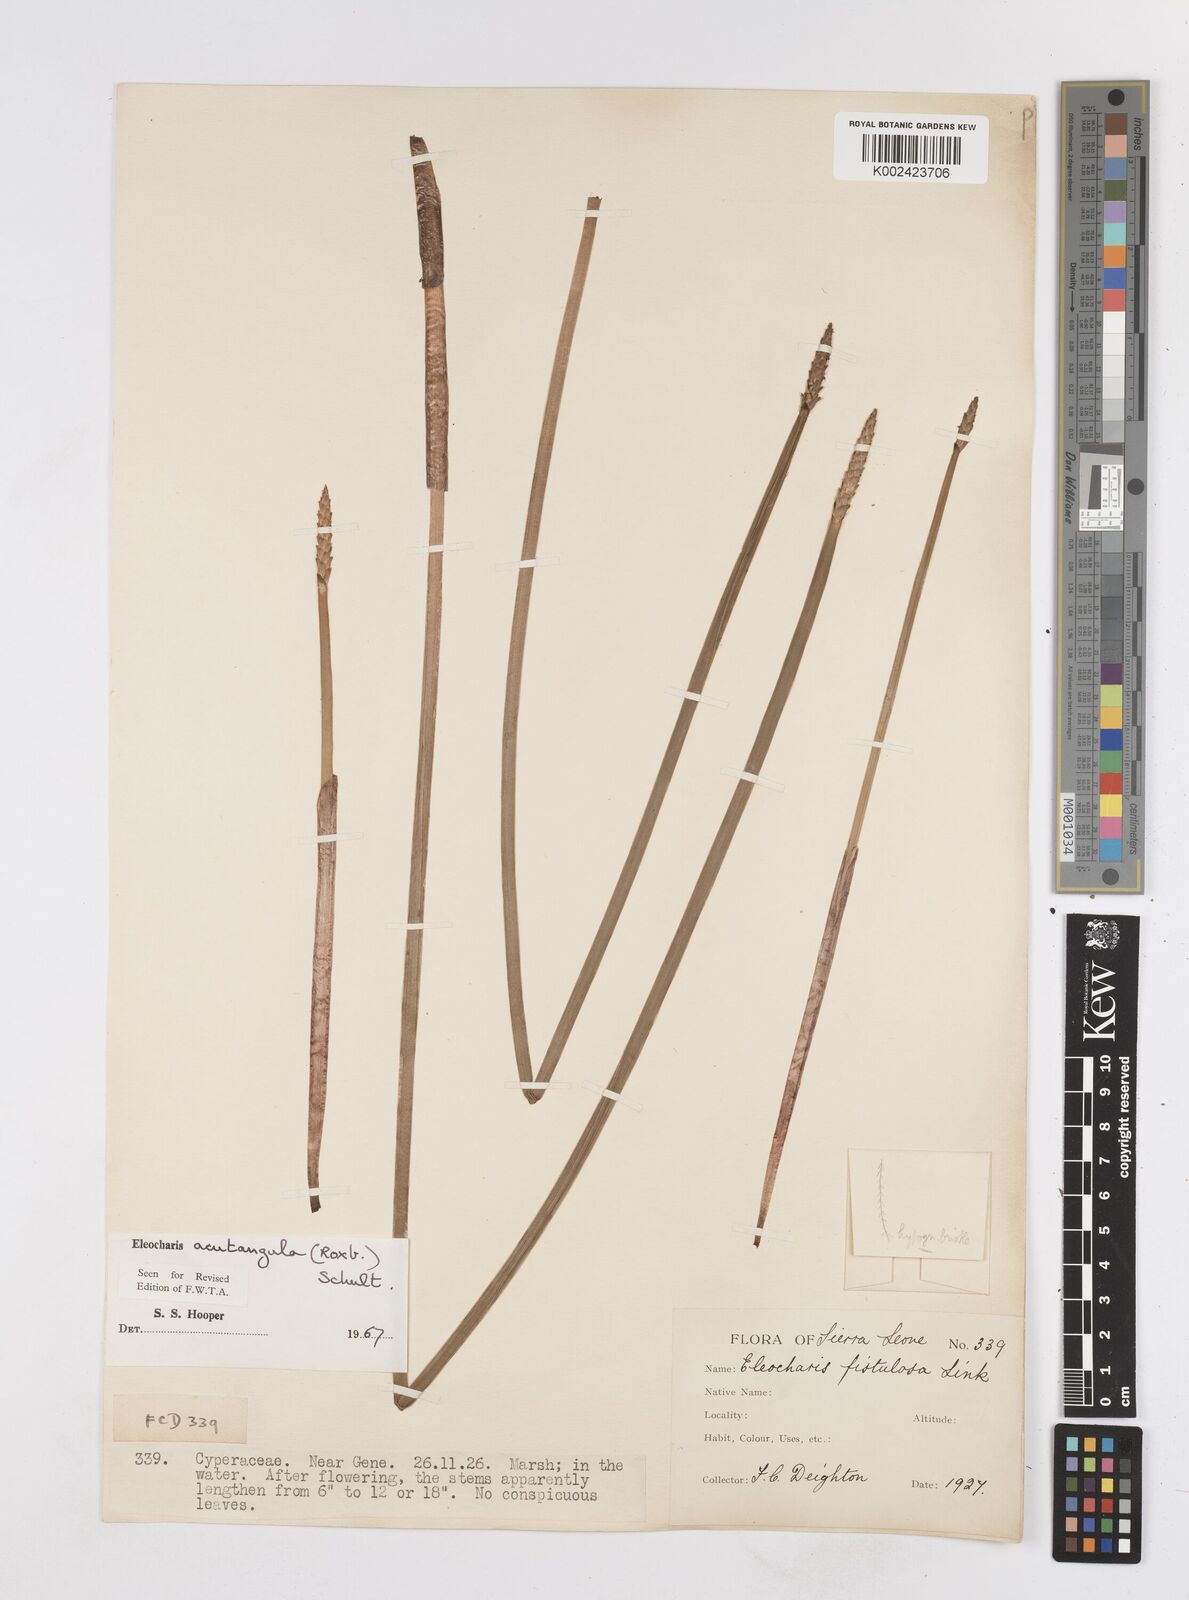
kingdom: Plantae
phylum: Tracheophyta
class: Liliopsida
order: Poales
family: Cyperaceae
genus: Eleocharis
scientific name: Eleocharis acutangula
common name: Acute spikerush
